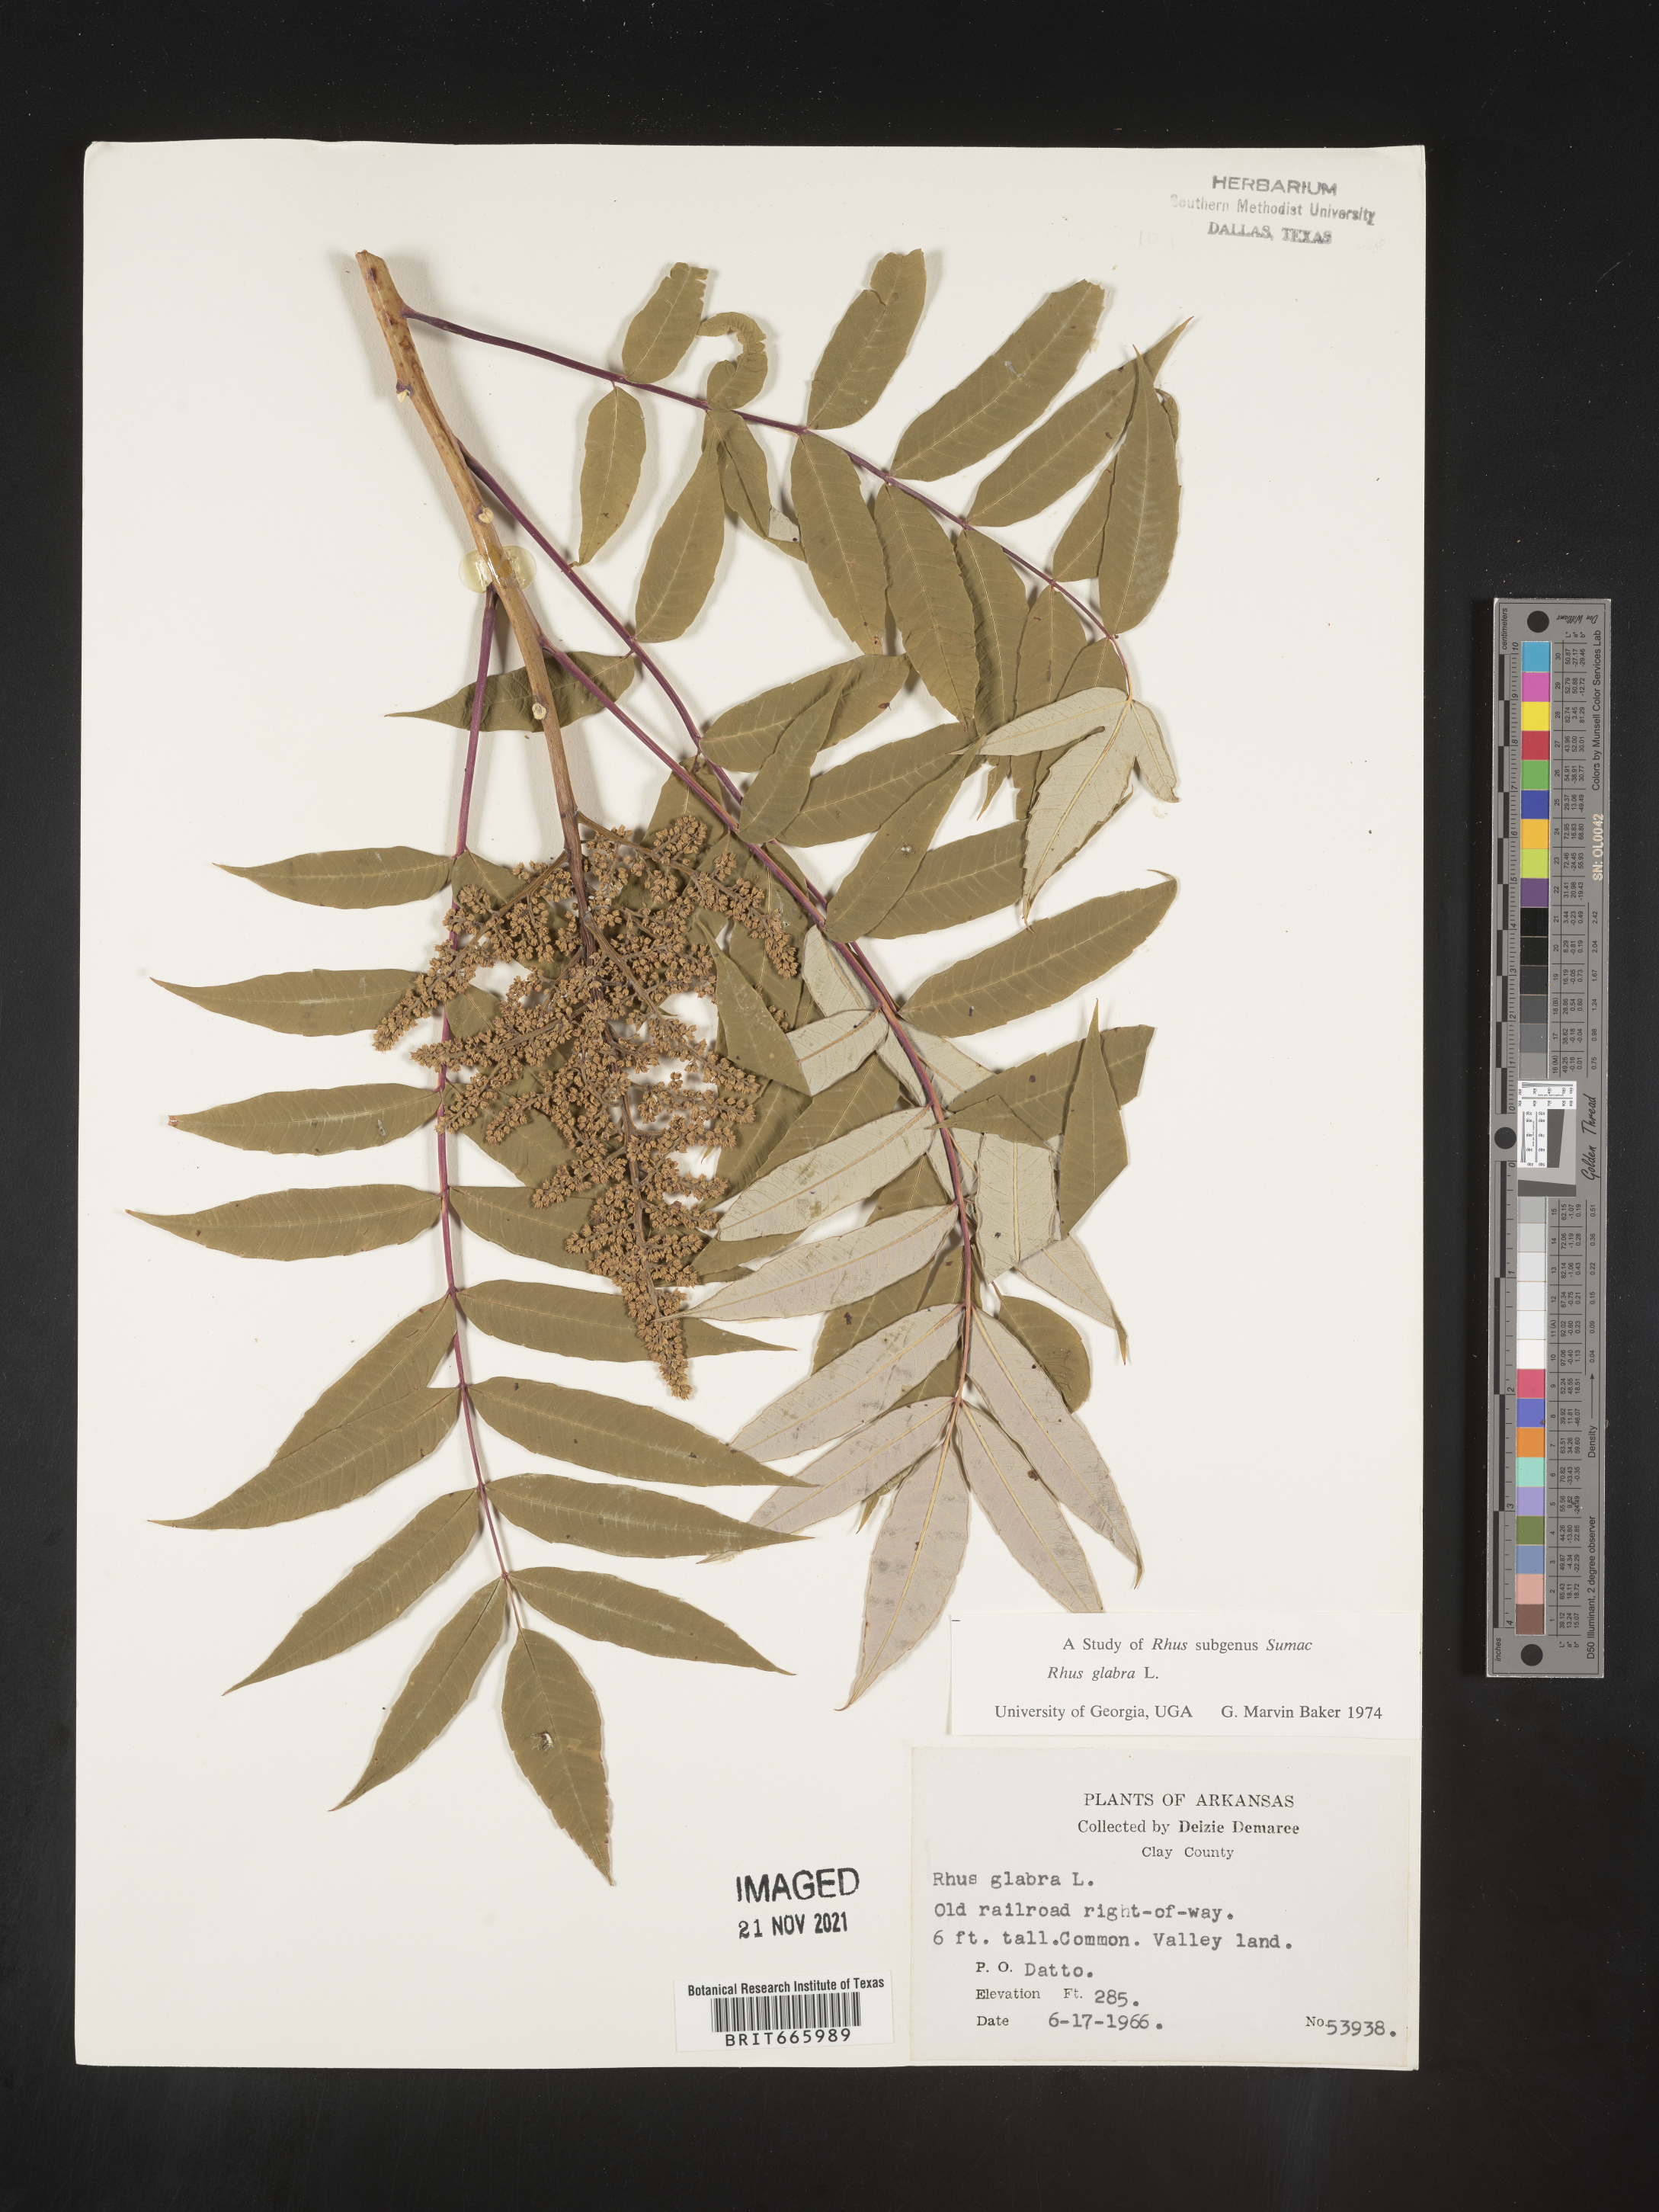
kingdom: Plantae
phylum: Tracheophyta
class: Magnoliopsida
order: Sapindales
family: Anacardiaceae
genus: Rhus
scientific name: Rhus glabra
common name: Scarlet sumac
